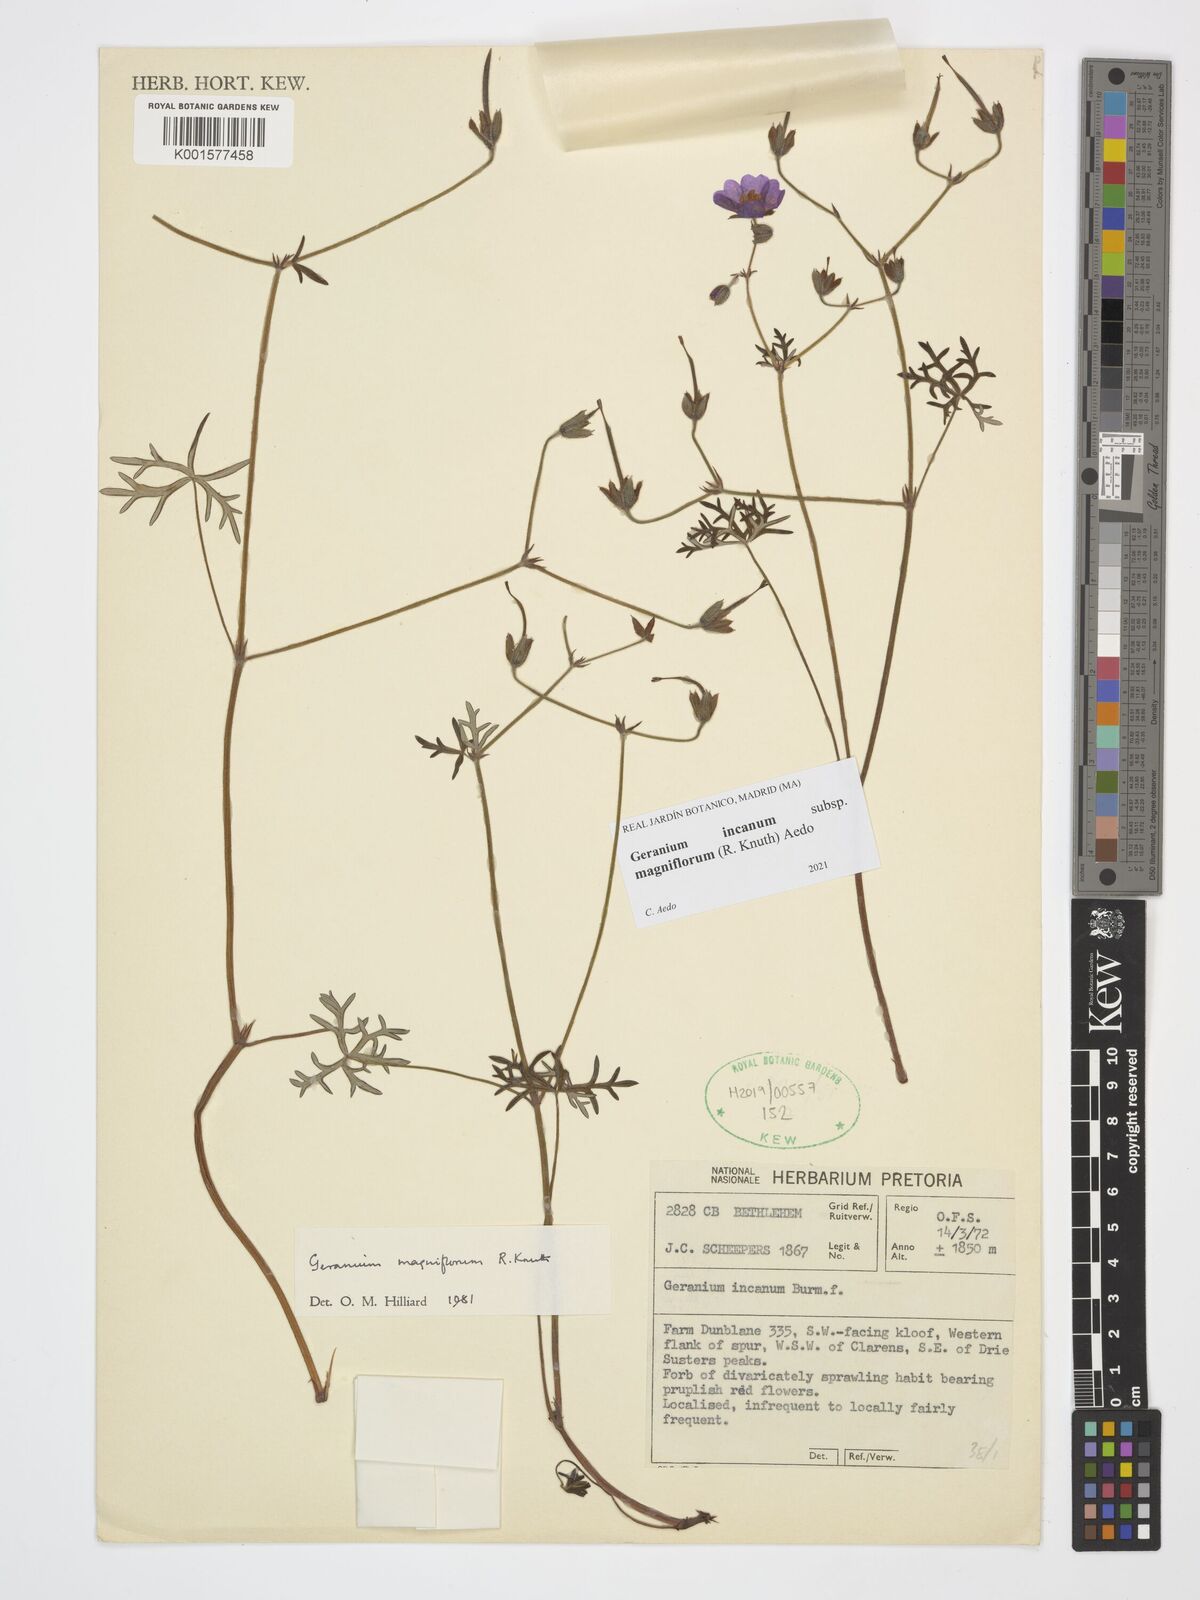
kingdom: Plantae
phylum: Tracheophyta
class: Magnoliopsida
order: Geraniales
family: Geraniaceae
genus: Geranium
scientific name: Geranium incanum
